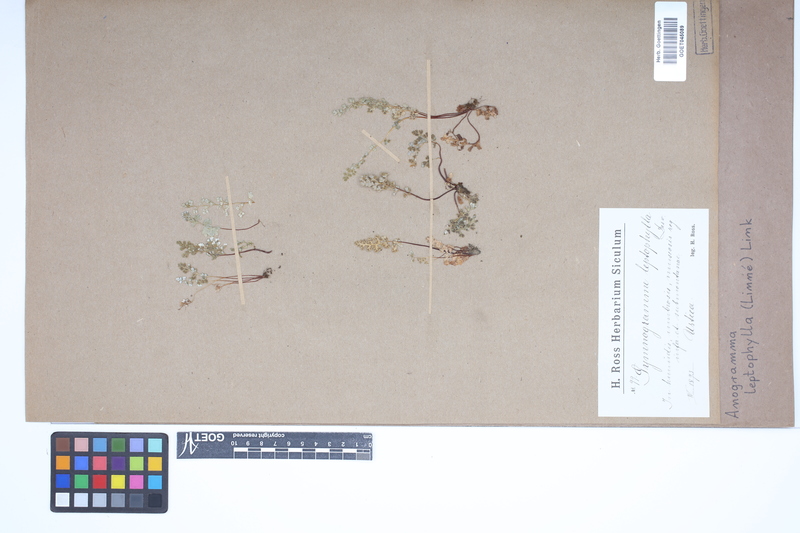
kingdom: Plantae
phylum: Tracheophyta
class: Polypodiopsida
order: Polypodiales
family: Pteridaceae
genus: Anogramma
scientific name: Anogramma leptophylla
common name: Jersey fern
